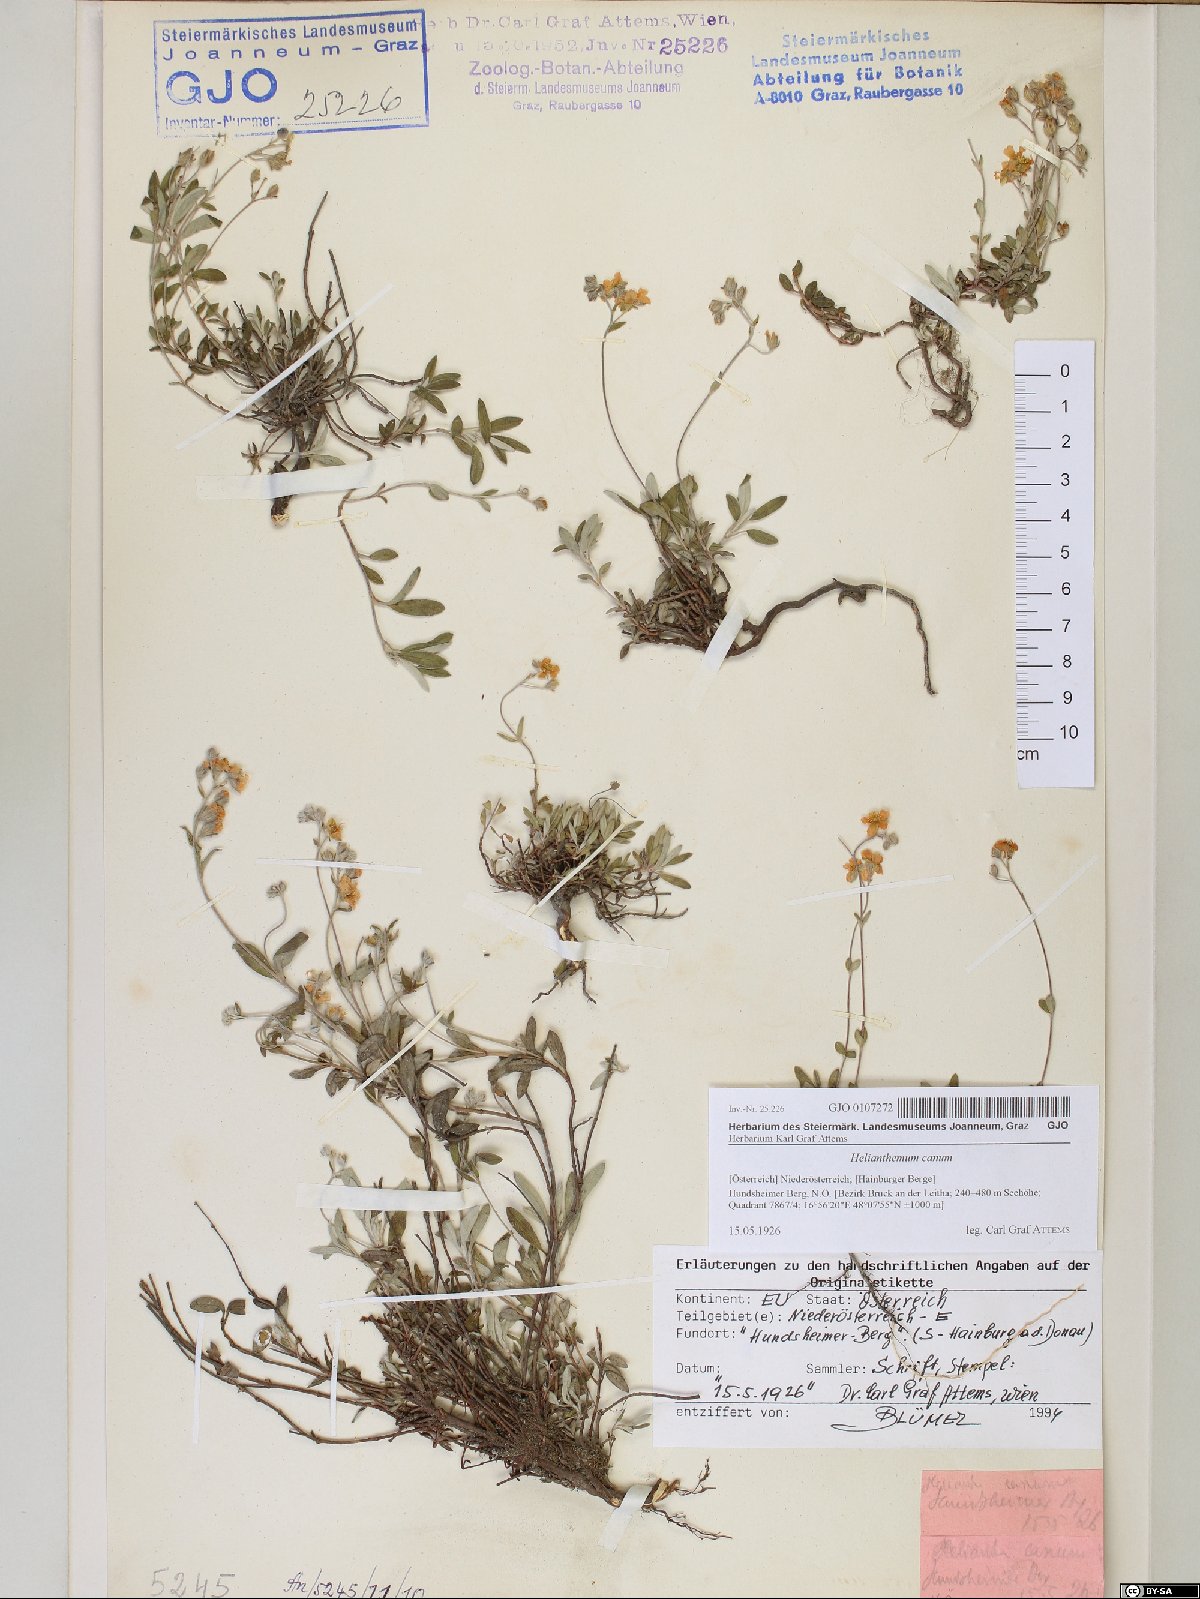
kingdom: Plantae
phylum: Tracheophyta
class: Magnoliopsida
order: Malvales
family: Cistaceae
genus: Helianthemum
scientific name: Helianthemum canum
